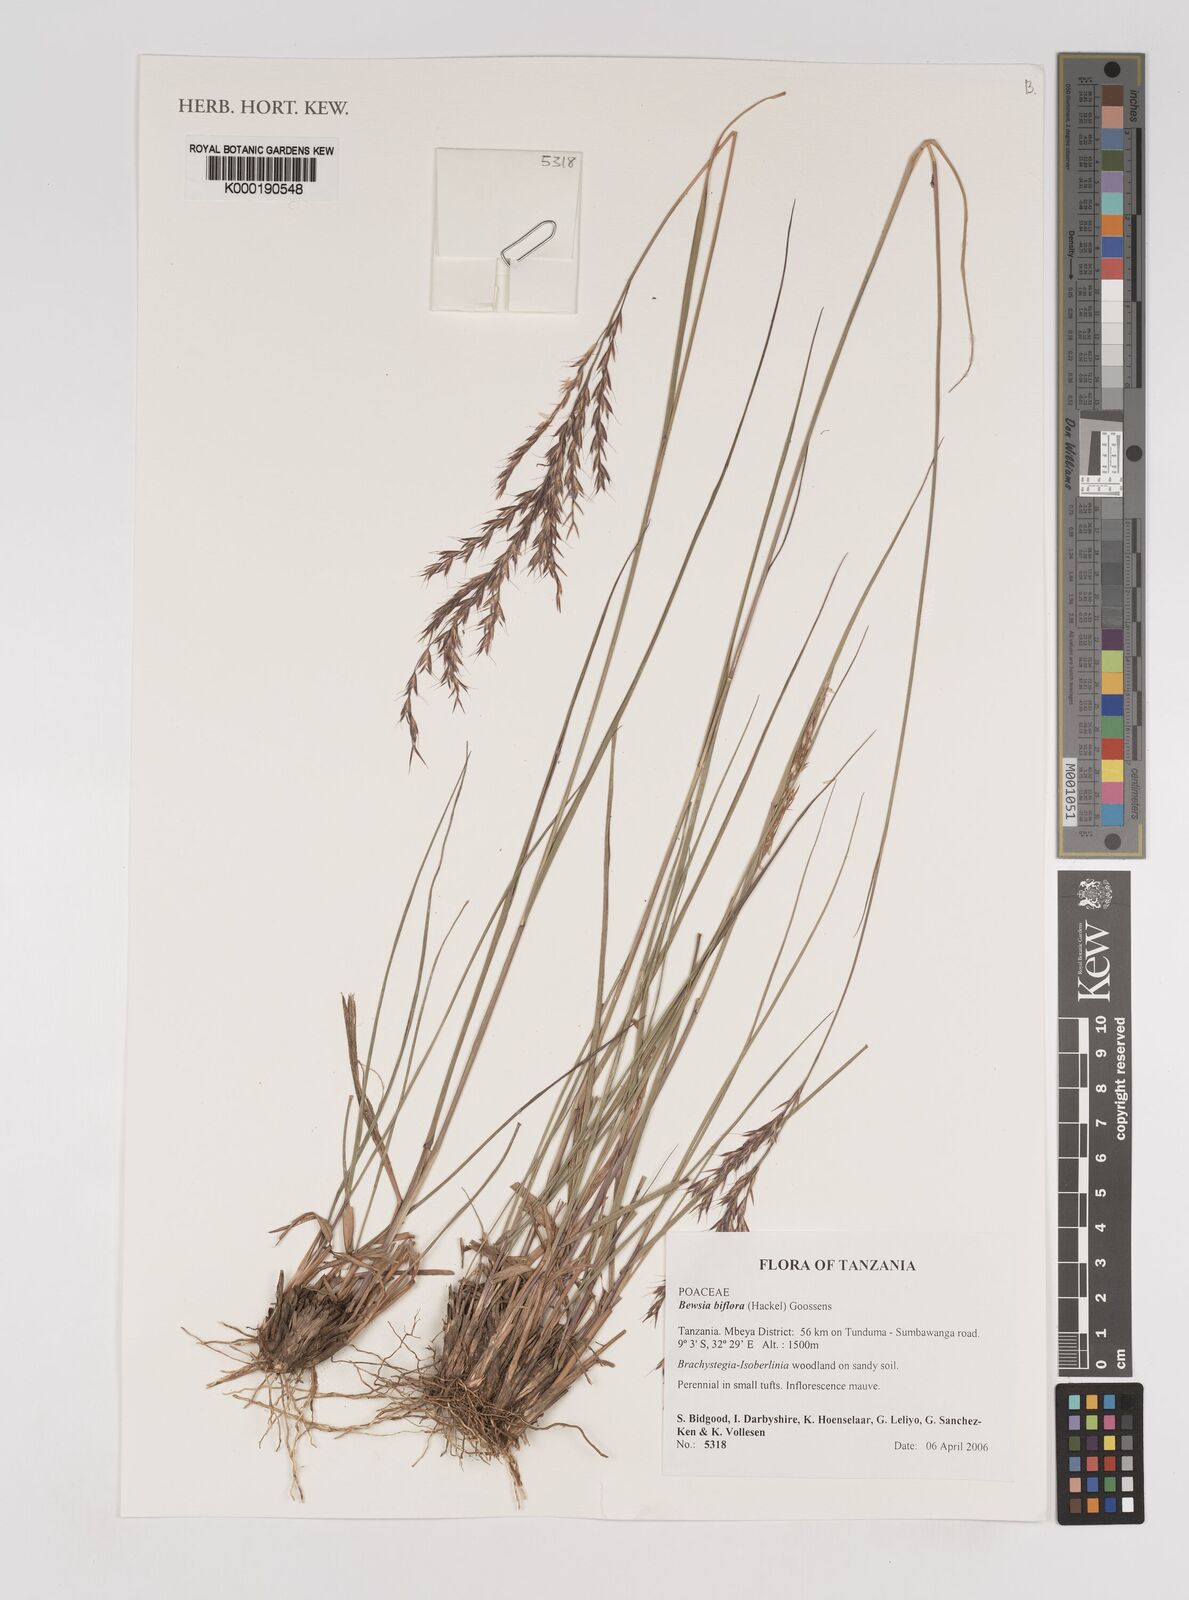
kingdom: Plantae
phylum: Tracheophyta
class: Liliopsida
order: Poales
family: Poaceae
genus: Bewsia
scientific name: Bewsia biflora
